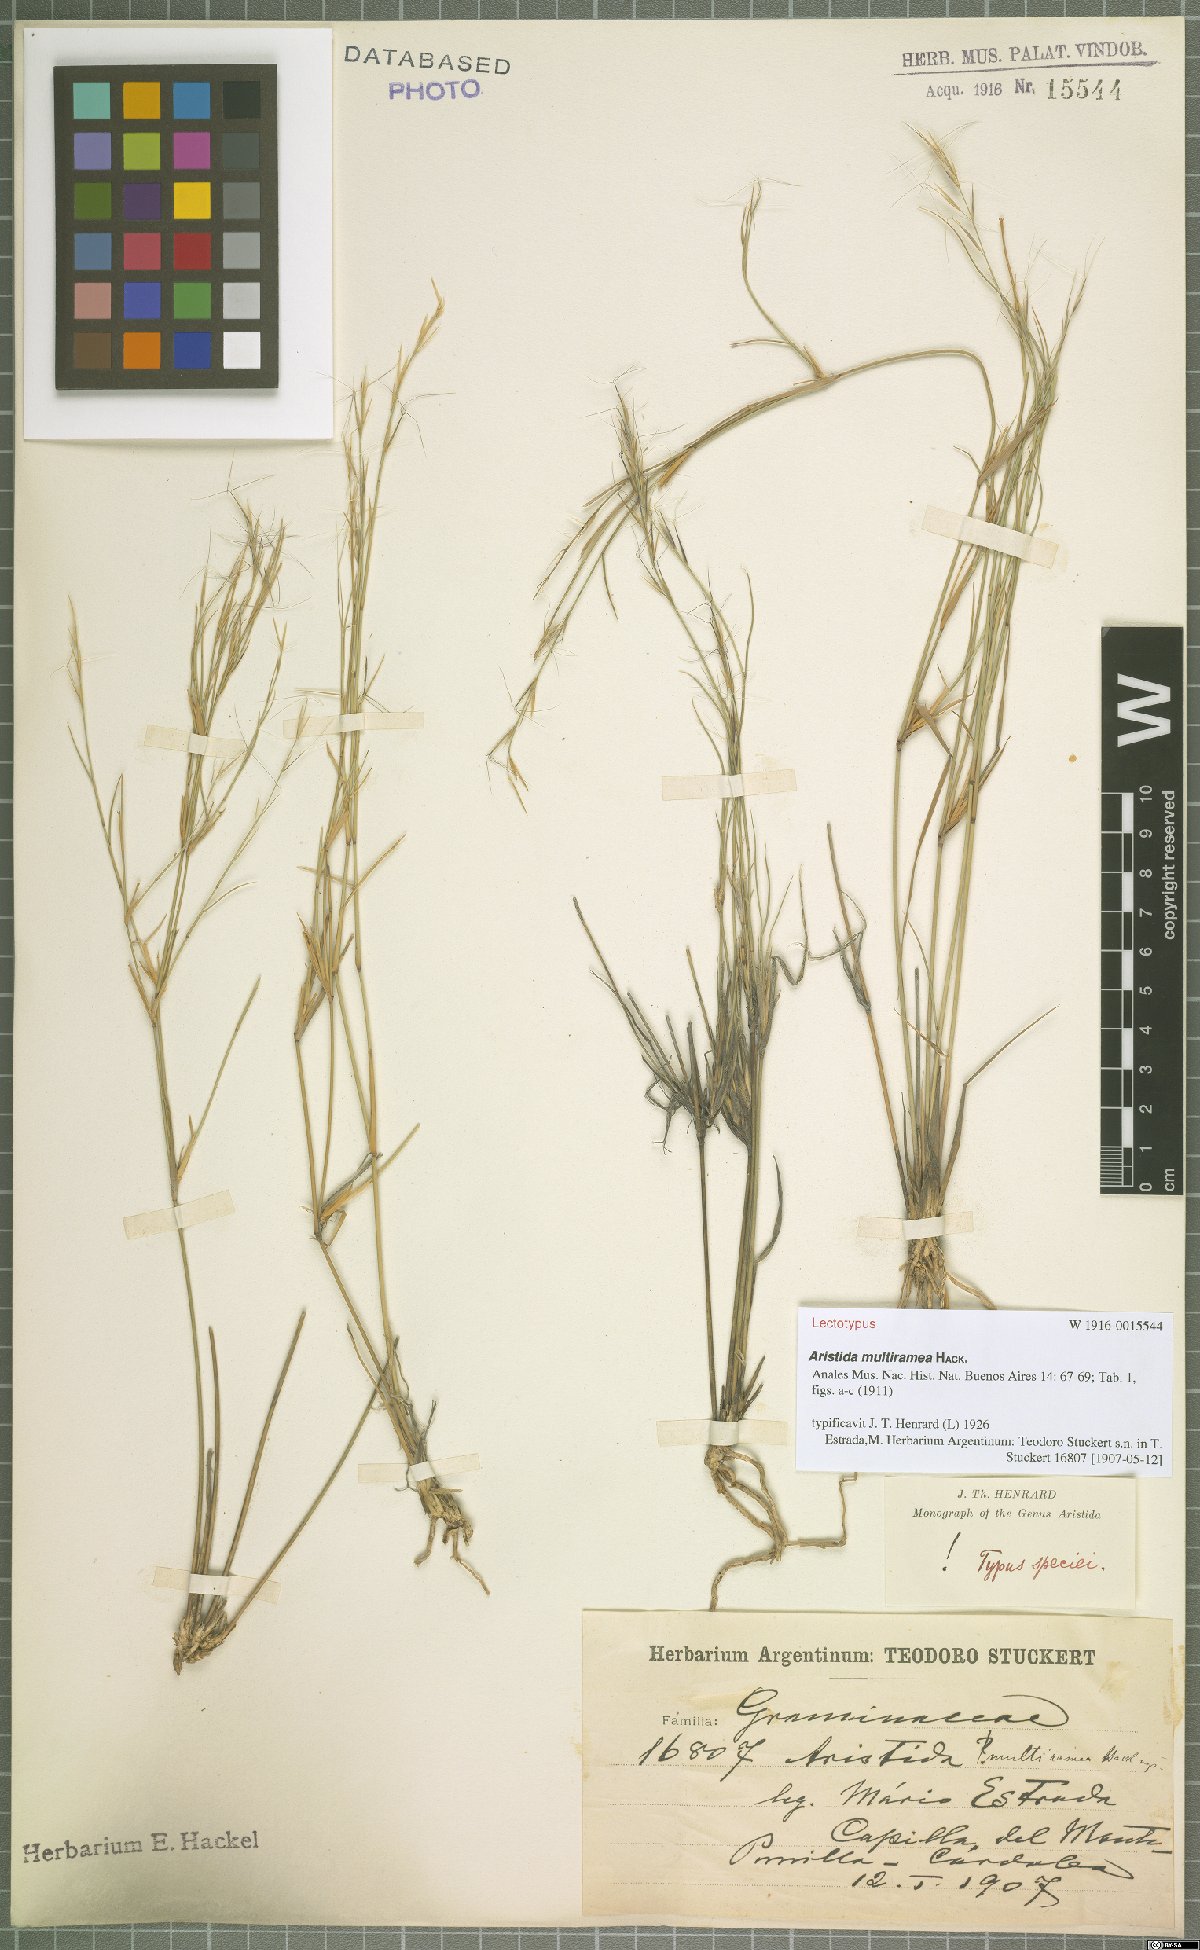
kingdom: Plantae
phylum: Tracheophyta
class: Liliopsida
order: Poales
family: Poaceae
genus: Aristida
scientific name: Aristida multiramea
